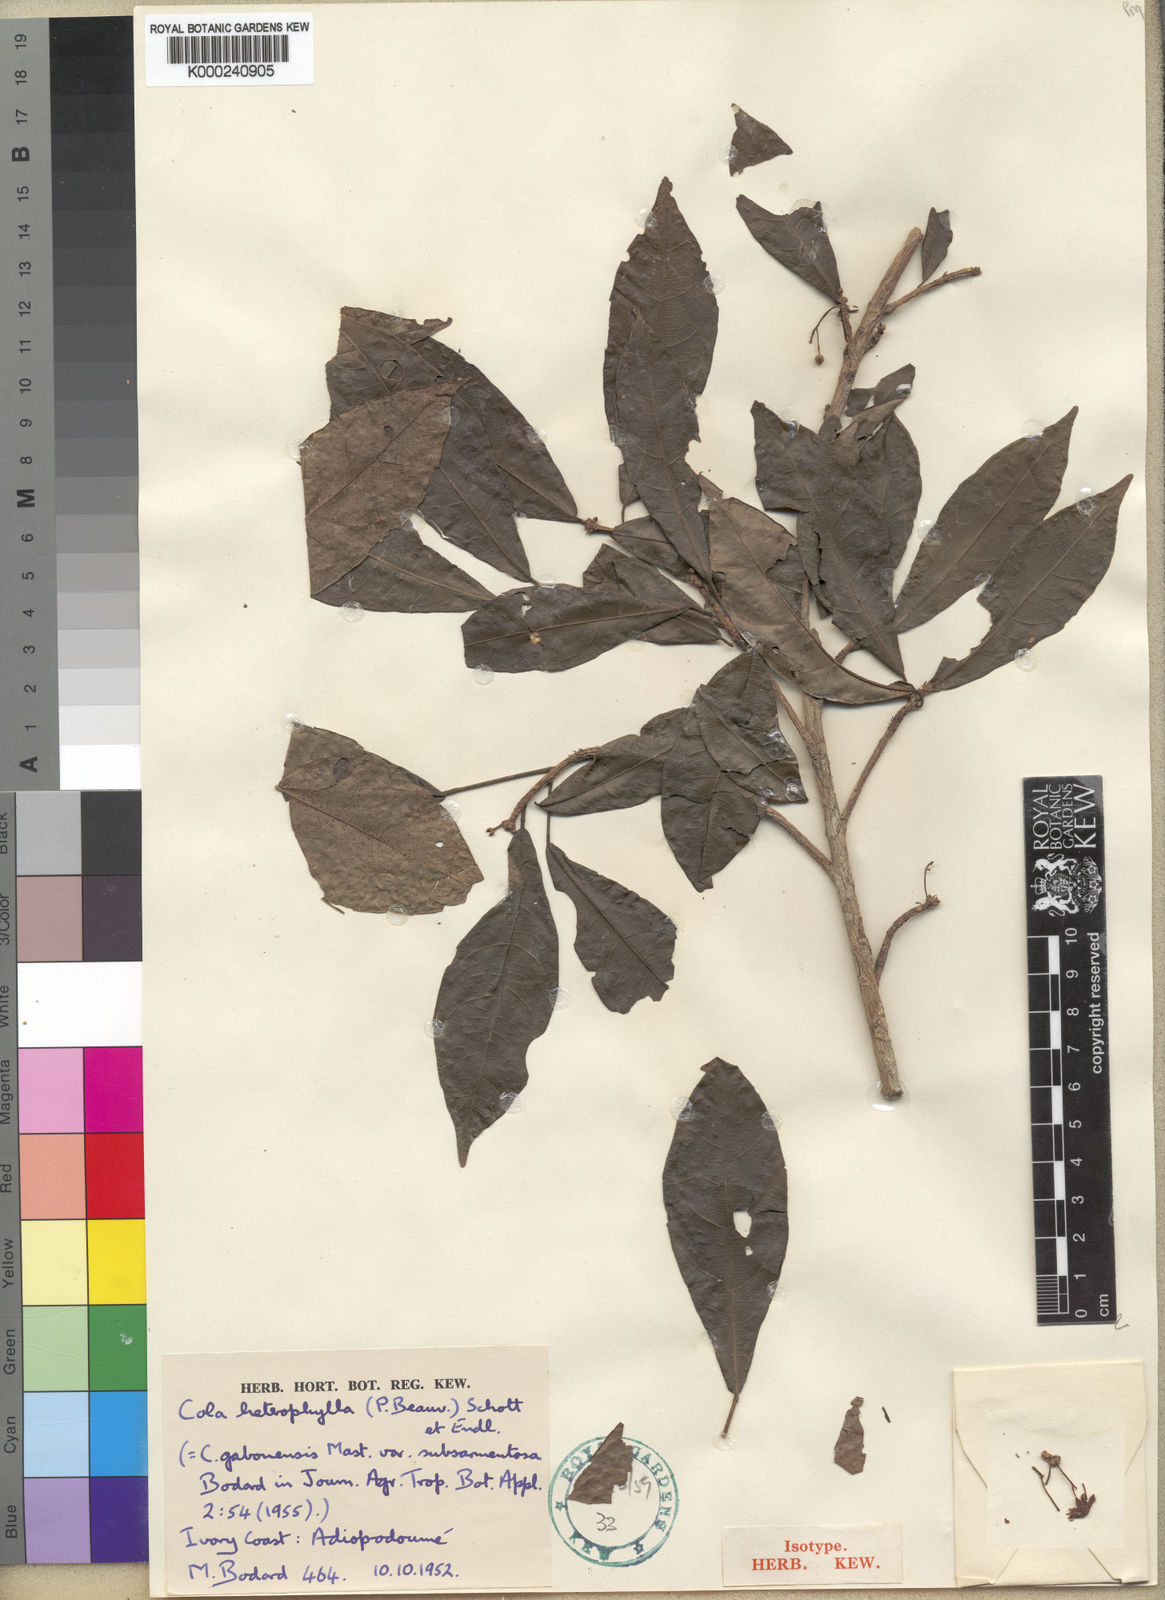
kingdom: Plantae
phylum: Tracheophyta
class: Magnoliopsida
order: Malvales
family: Malvaceae
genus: Cola
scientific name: Cola heterophylla
